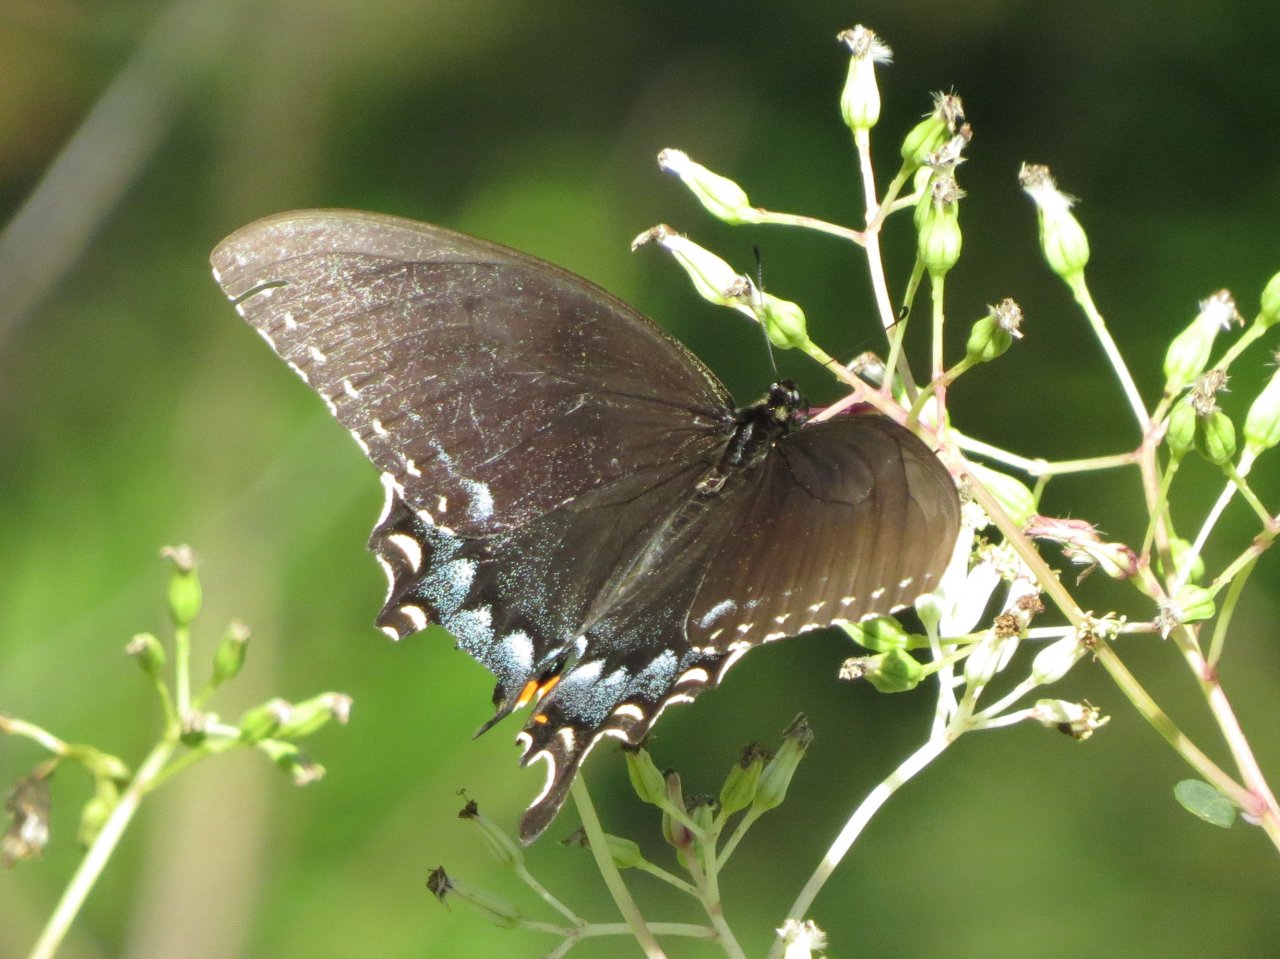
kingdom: Animalia
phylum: Arthropoda
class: Insecta
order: Lepidoptera
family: Papilionidae
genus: Pterourus
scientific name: Pterourus glaucus
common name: Eastern Tiger Swallowtail
